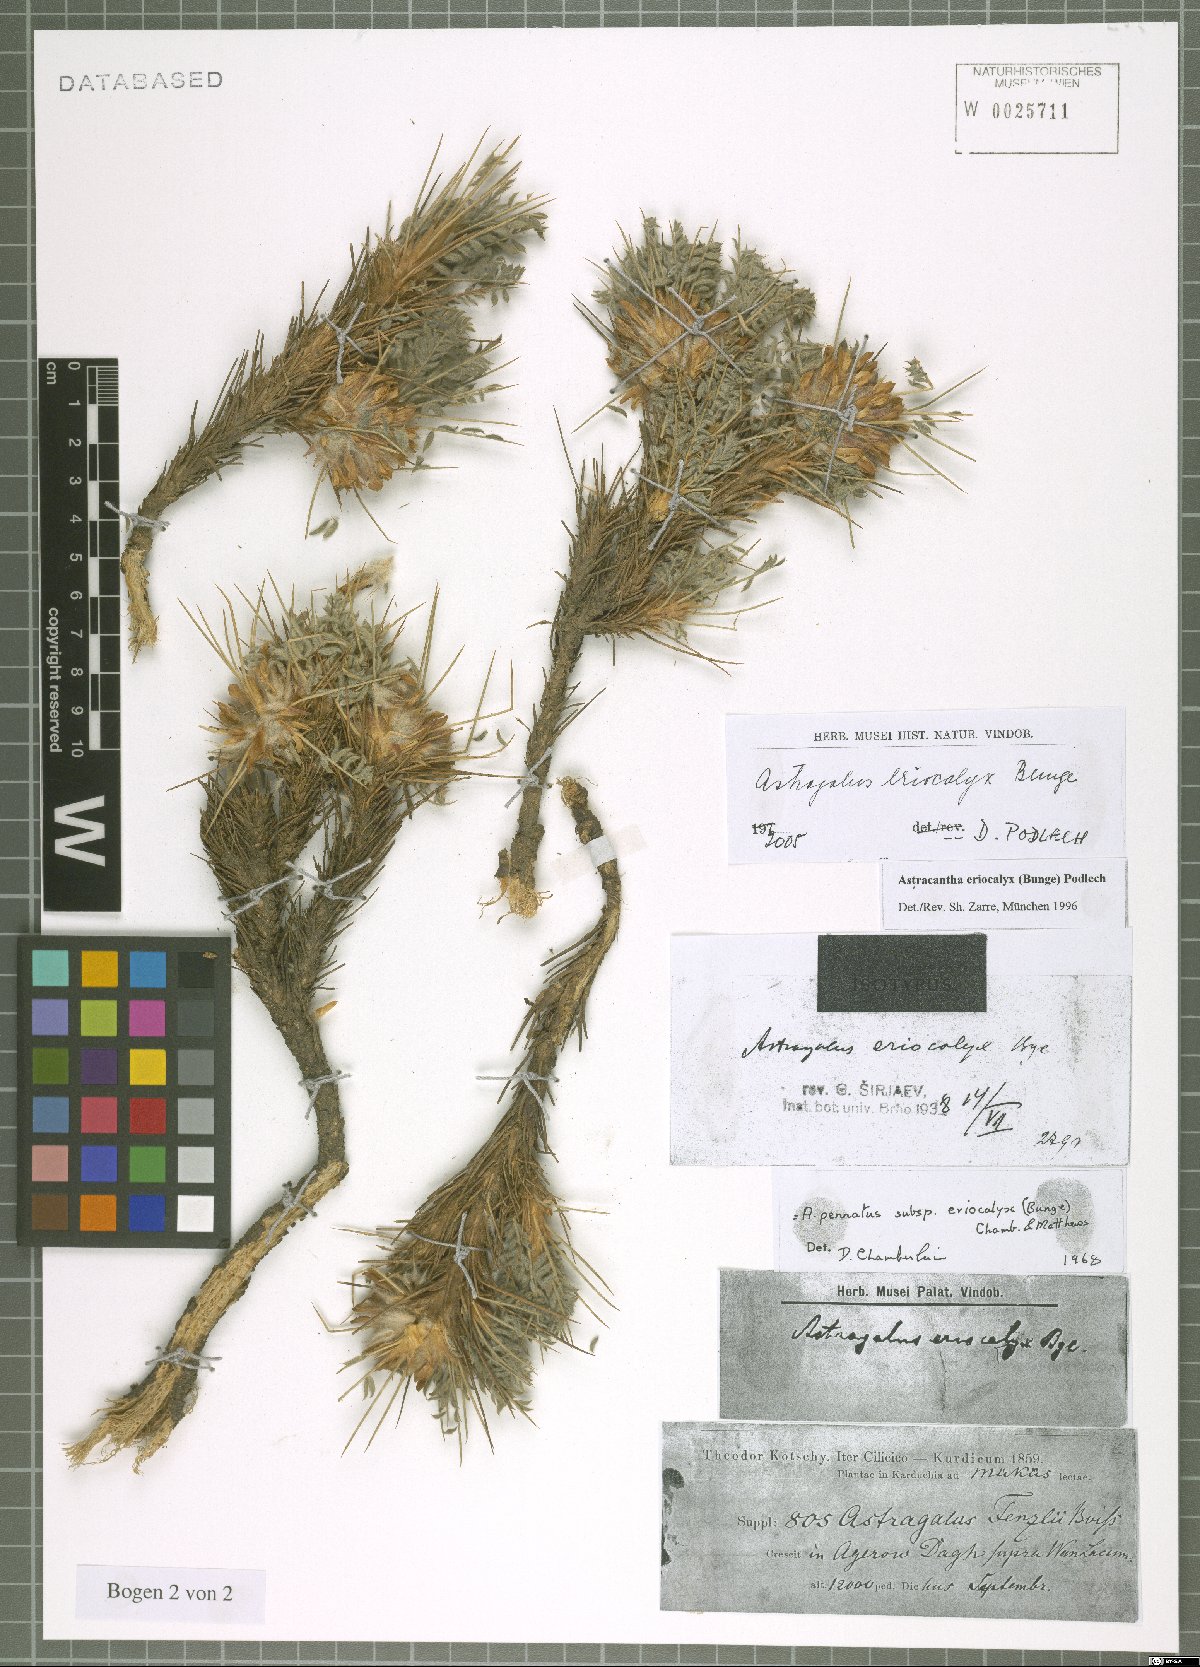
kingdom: Plantae
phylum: Tracheophyta
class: Magnoliopsida
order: Fabales
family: Fabaceae
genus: Astragalus
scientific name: Astragalus eriocalyx
